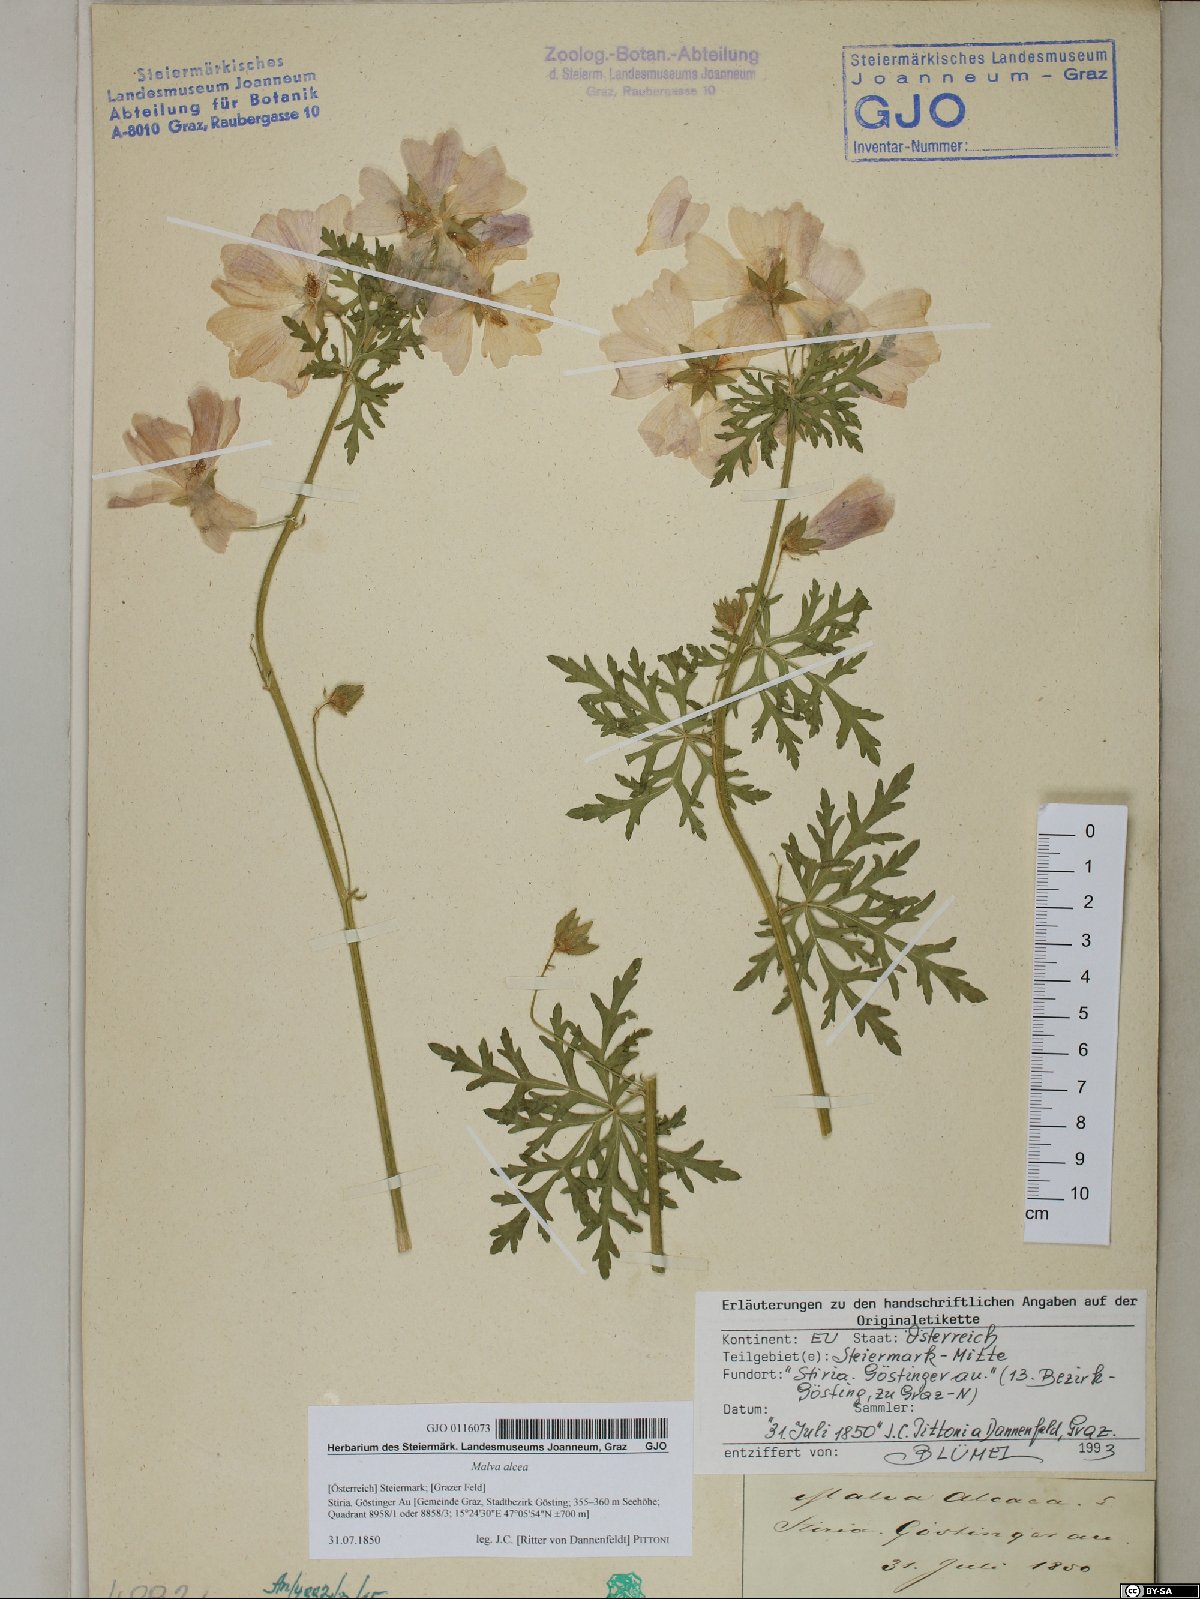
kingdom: Plantae
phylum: Tracheophyta
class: Magnoliopsida
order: Malvales
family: Malvaceae
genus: Malva
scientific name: Malva alcea
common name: Greater musk-mallow
